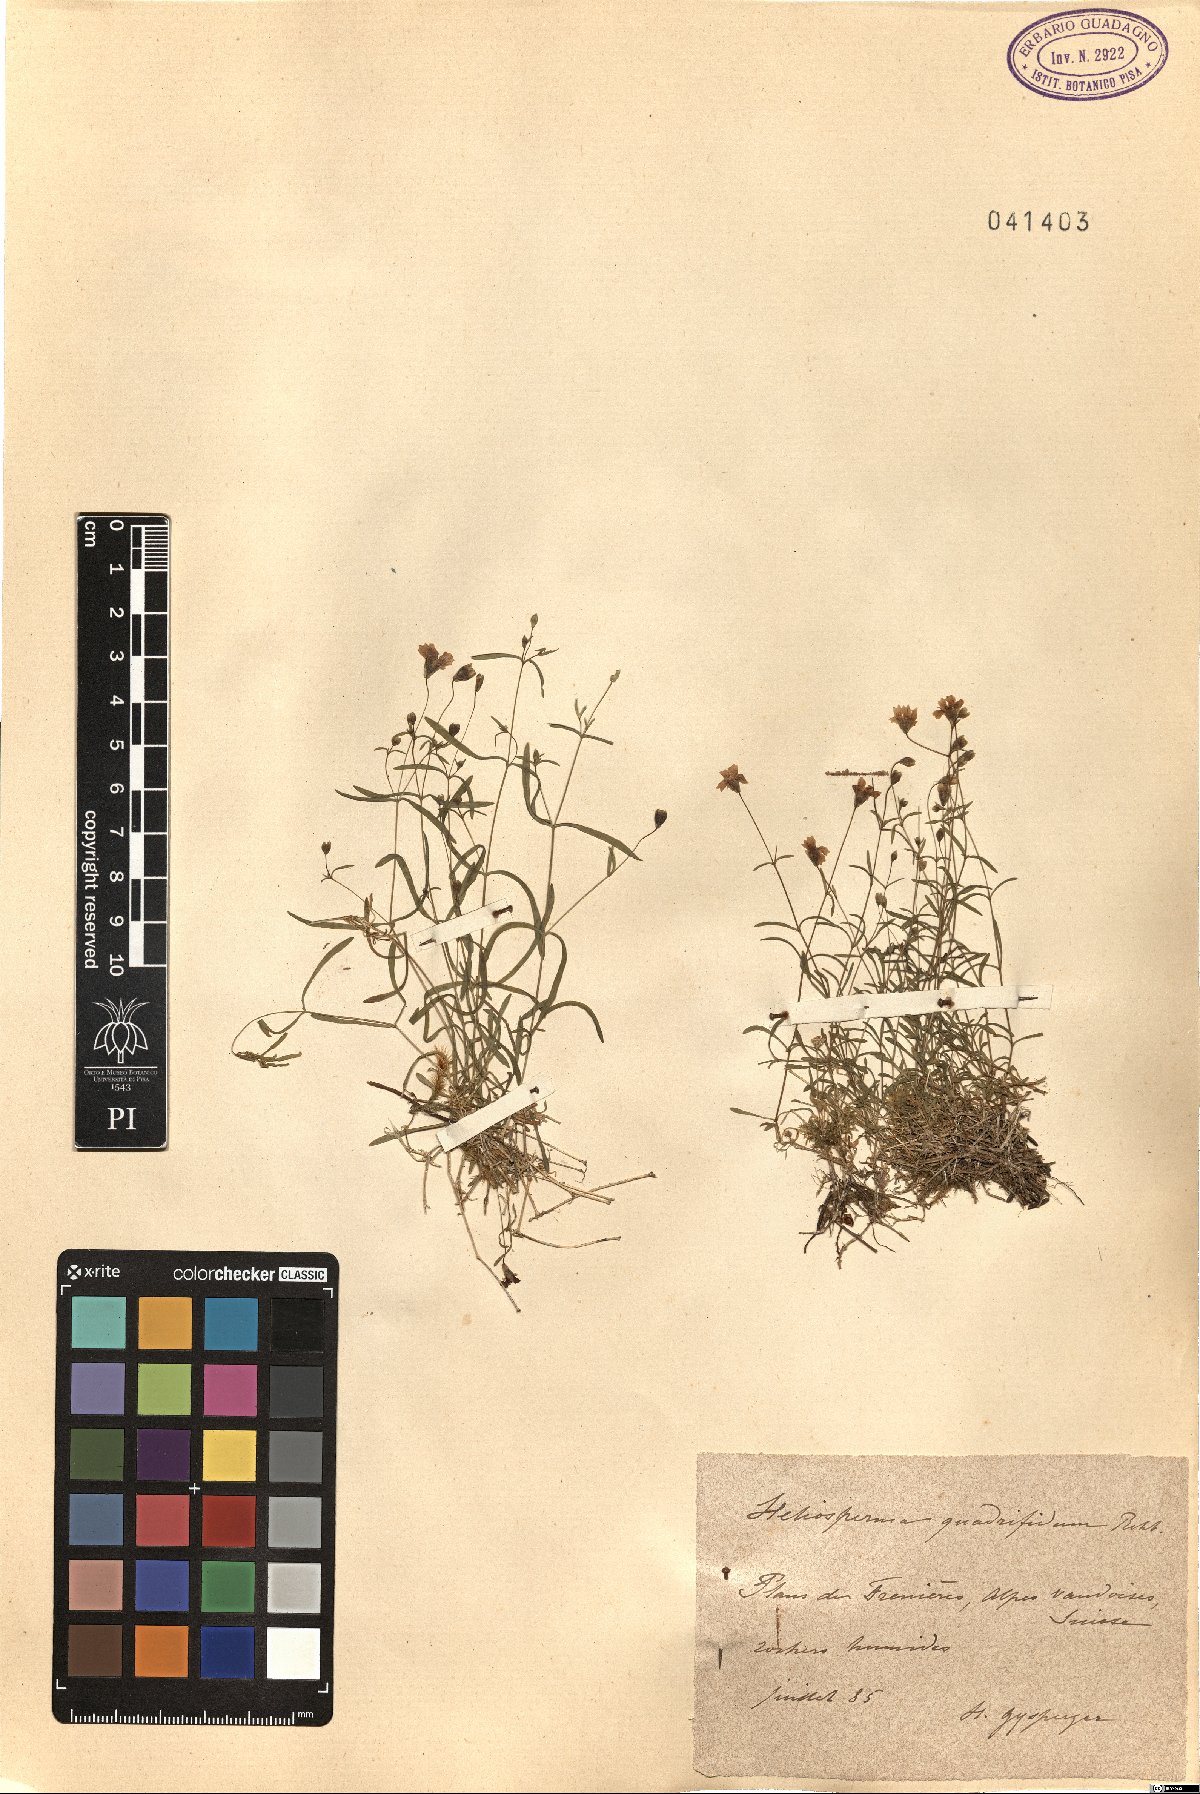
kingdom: Plantae
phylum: Tracheophyta
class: Magnoliopsida
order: Caryophyllales
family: Caryophyllaceae
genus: Heliosperma
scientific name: Heliosperma alpestre
